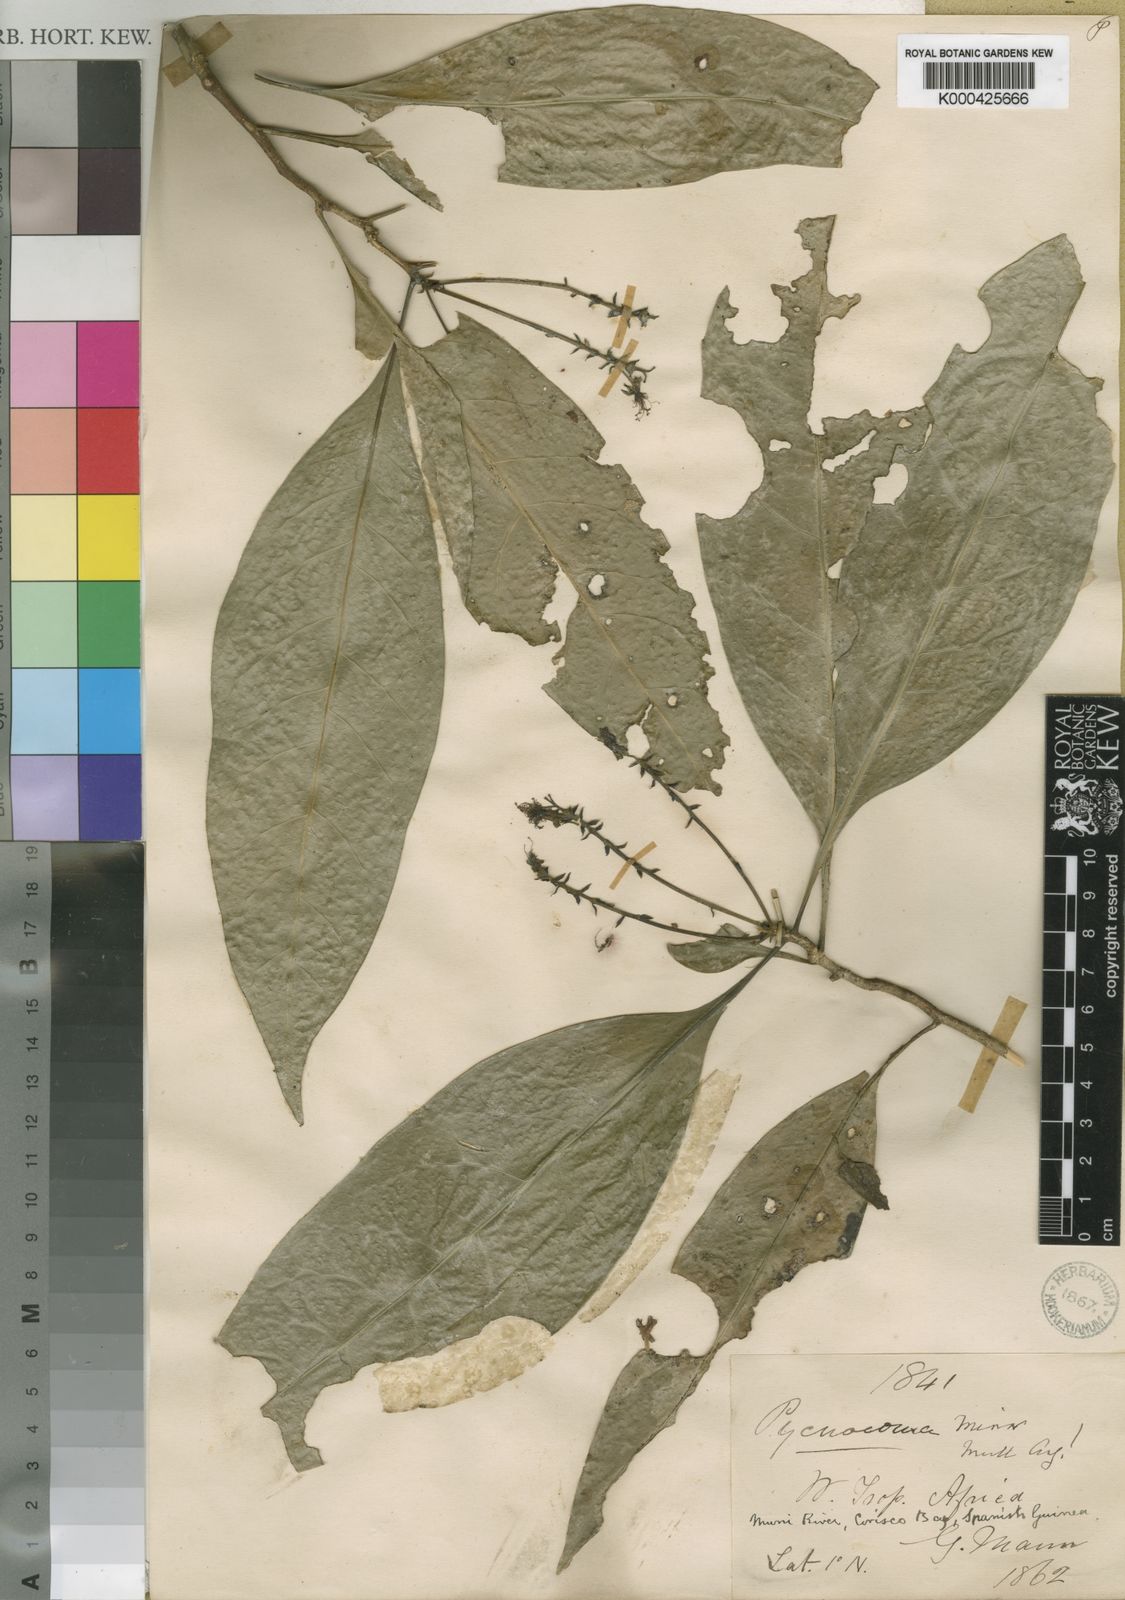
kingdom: Plantae
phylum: Tracheophyta
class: Magnoliopsida
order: Malpighiales
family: Euphorbiaceae
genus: Pycnocoma
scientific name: Pycnocoma
